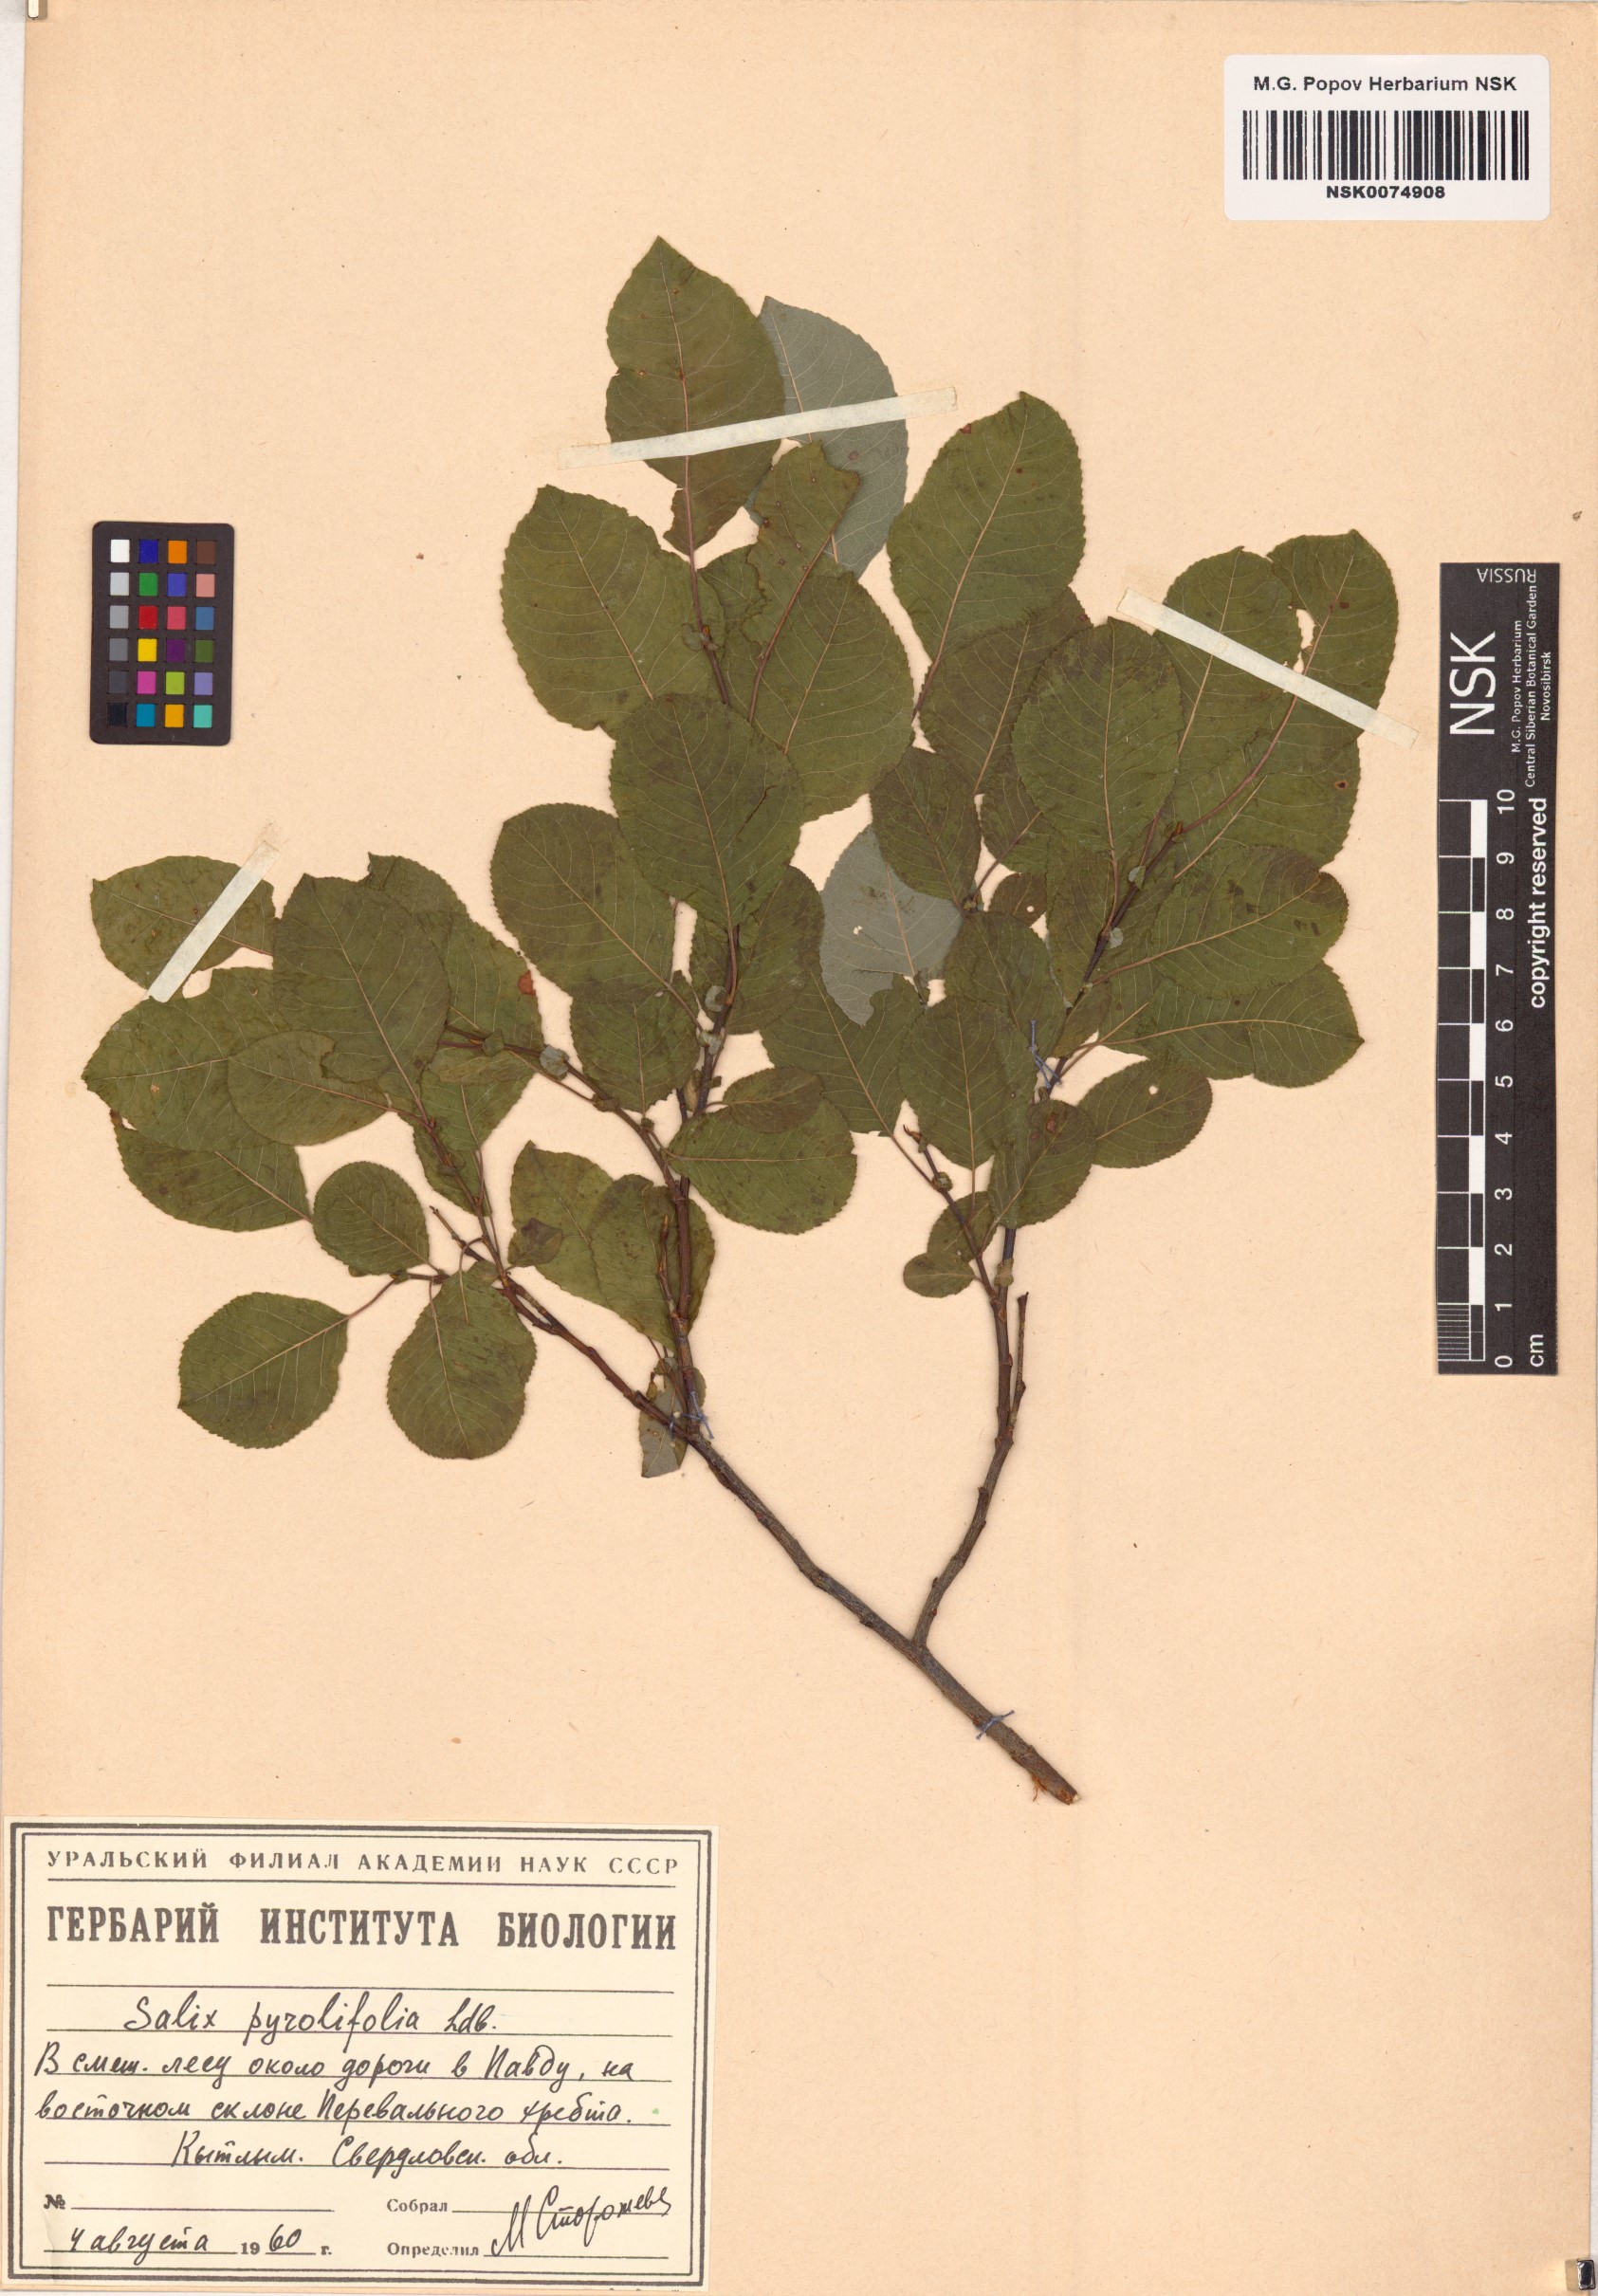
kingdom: Plantae
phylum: Tracheophyta
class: Magnoliopsida
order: Malpighiales
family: Salicaceae
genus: Salix
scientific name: Salix pyrolifolia
